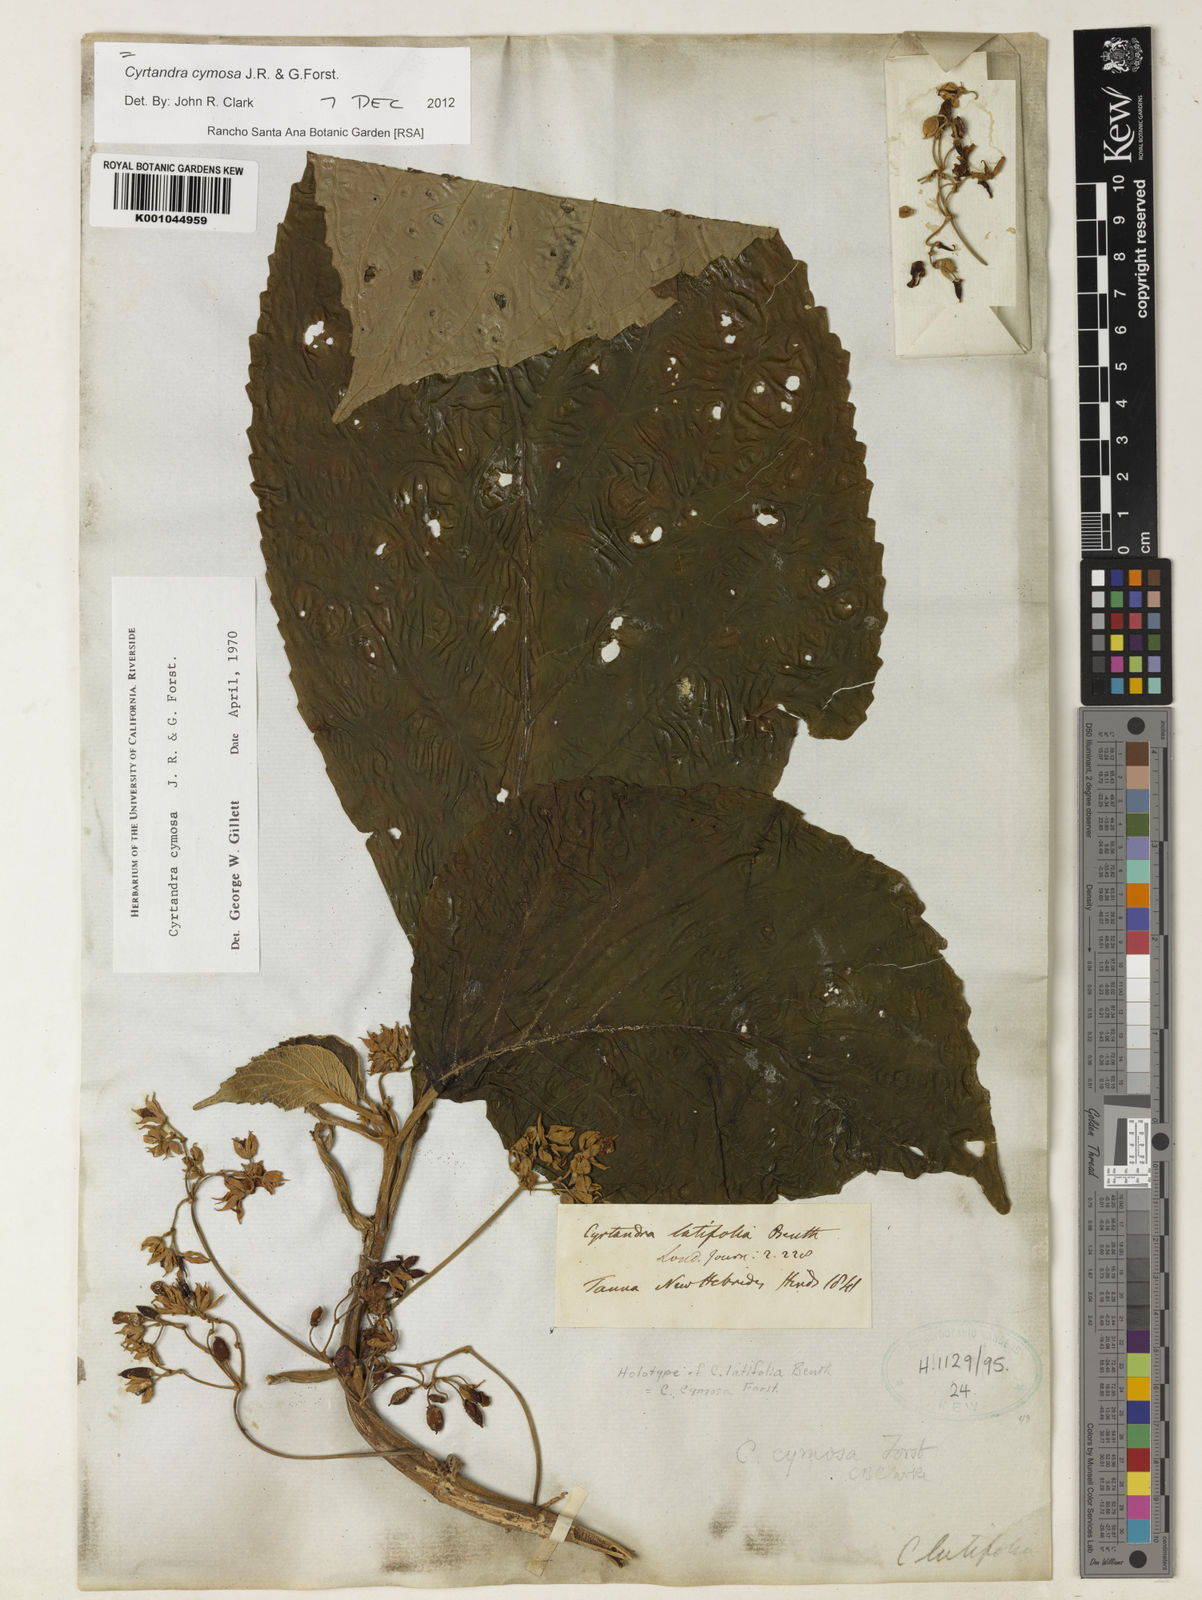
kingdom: Plantae
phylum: Tracheophyta
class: Magnoliopsida
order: Lamiales
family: Gesneriaceae
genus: Cyrtandra
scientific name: Cyrtandra cymosa
